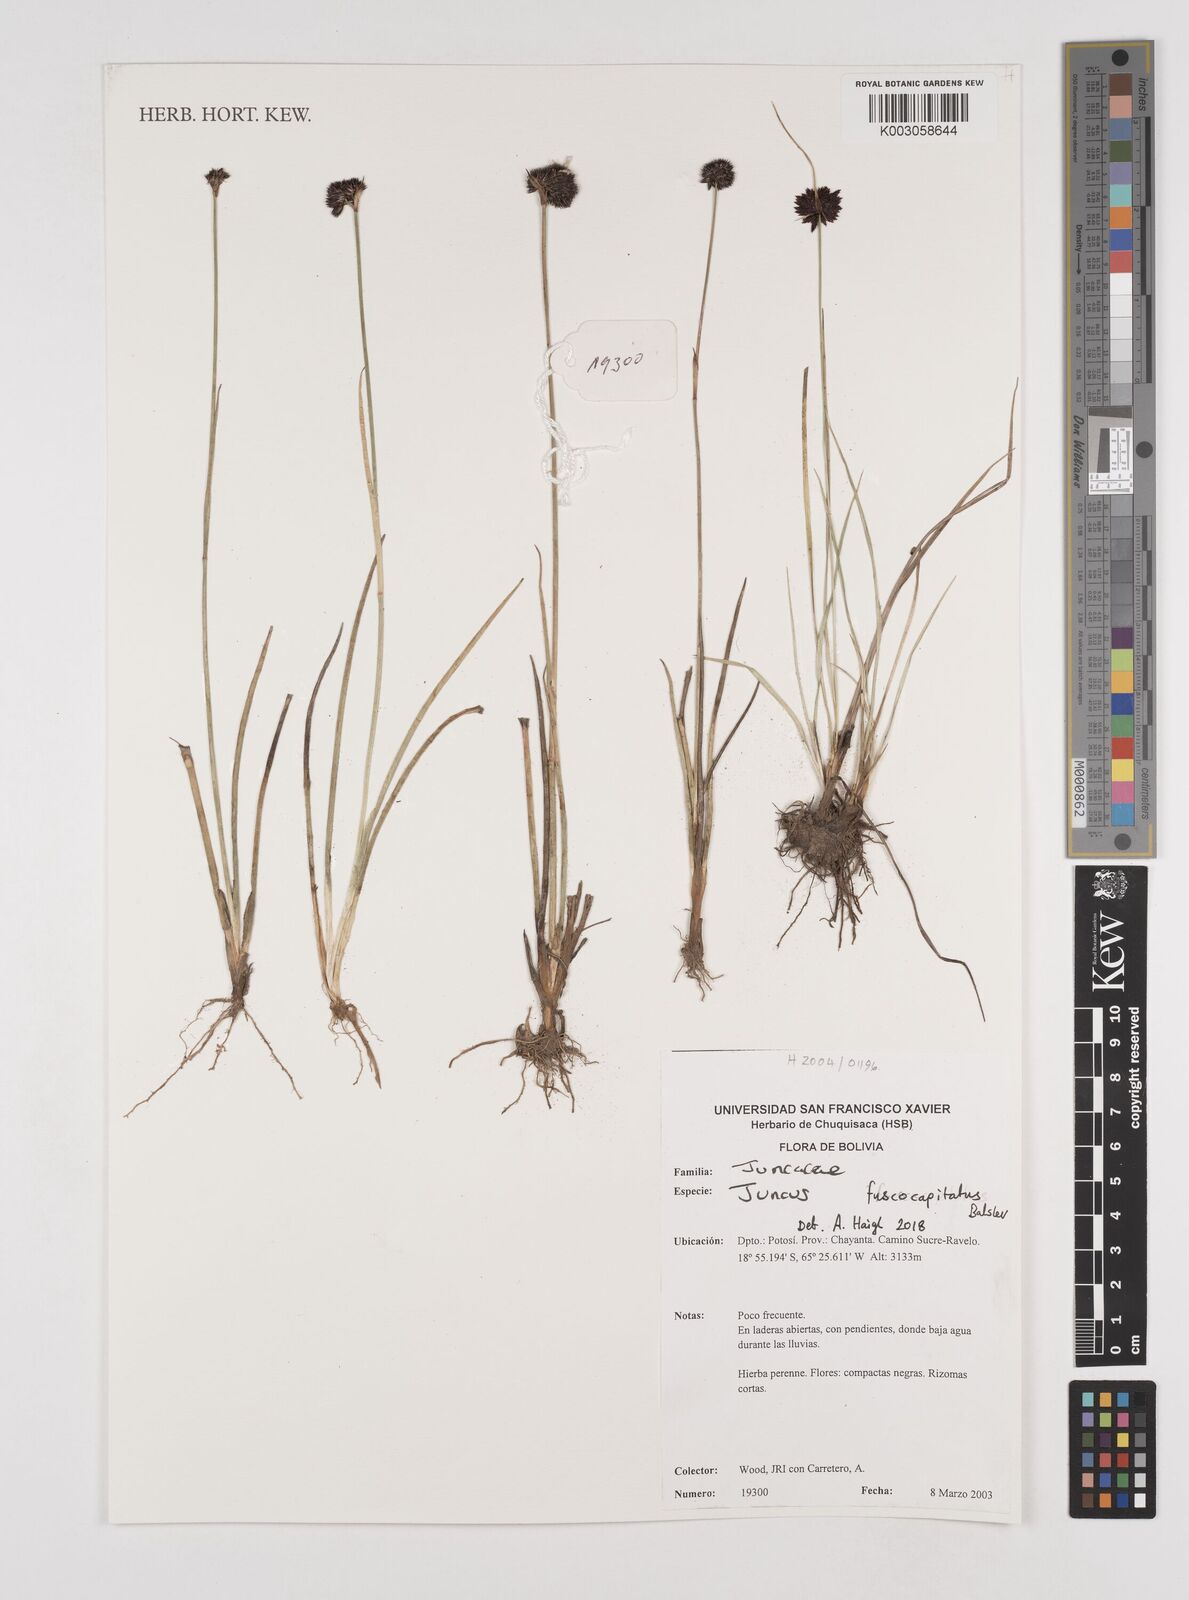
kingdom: Plantae
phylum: Tracheophyta
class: Liliopsida
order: Poales
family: Juncaceae
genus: Juncus
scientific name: Juncus pallescens
